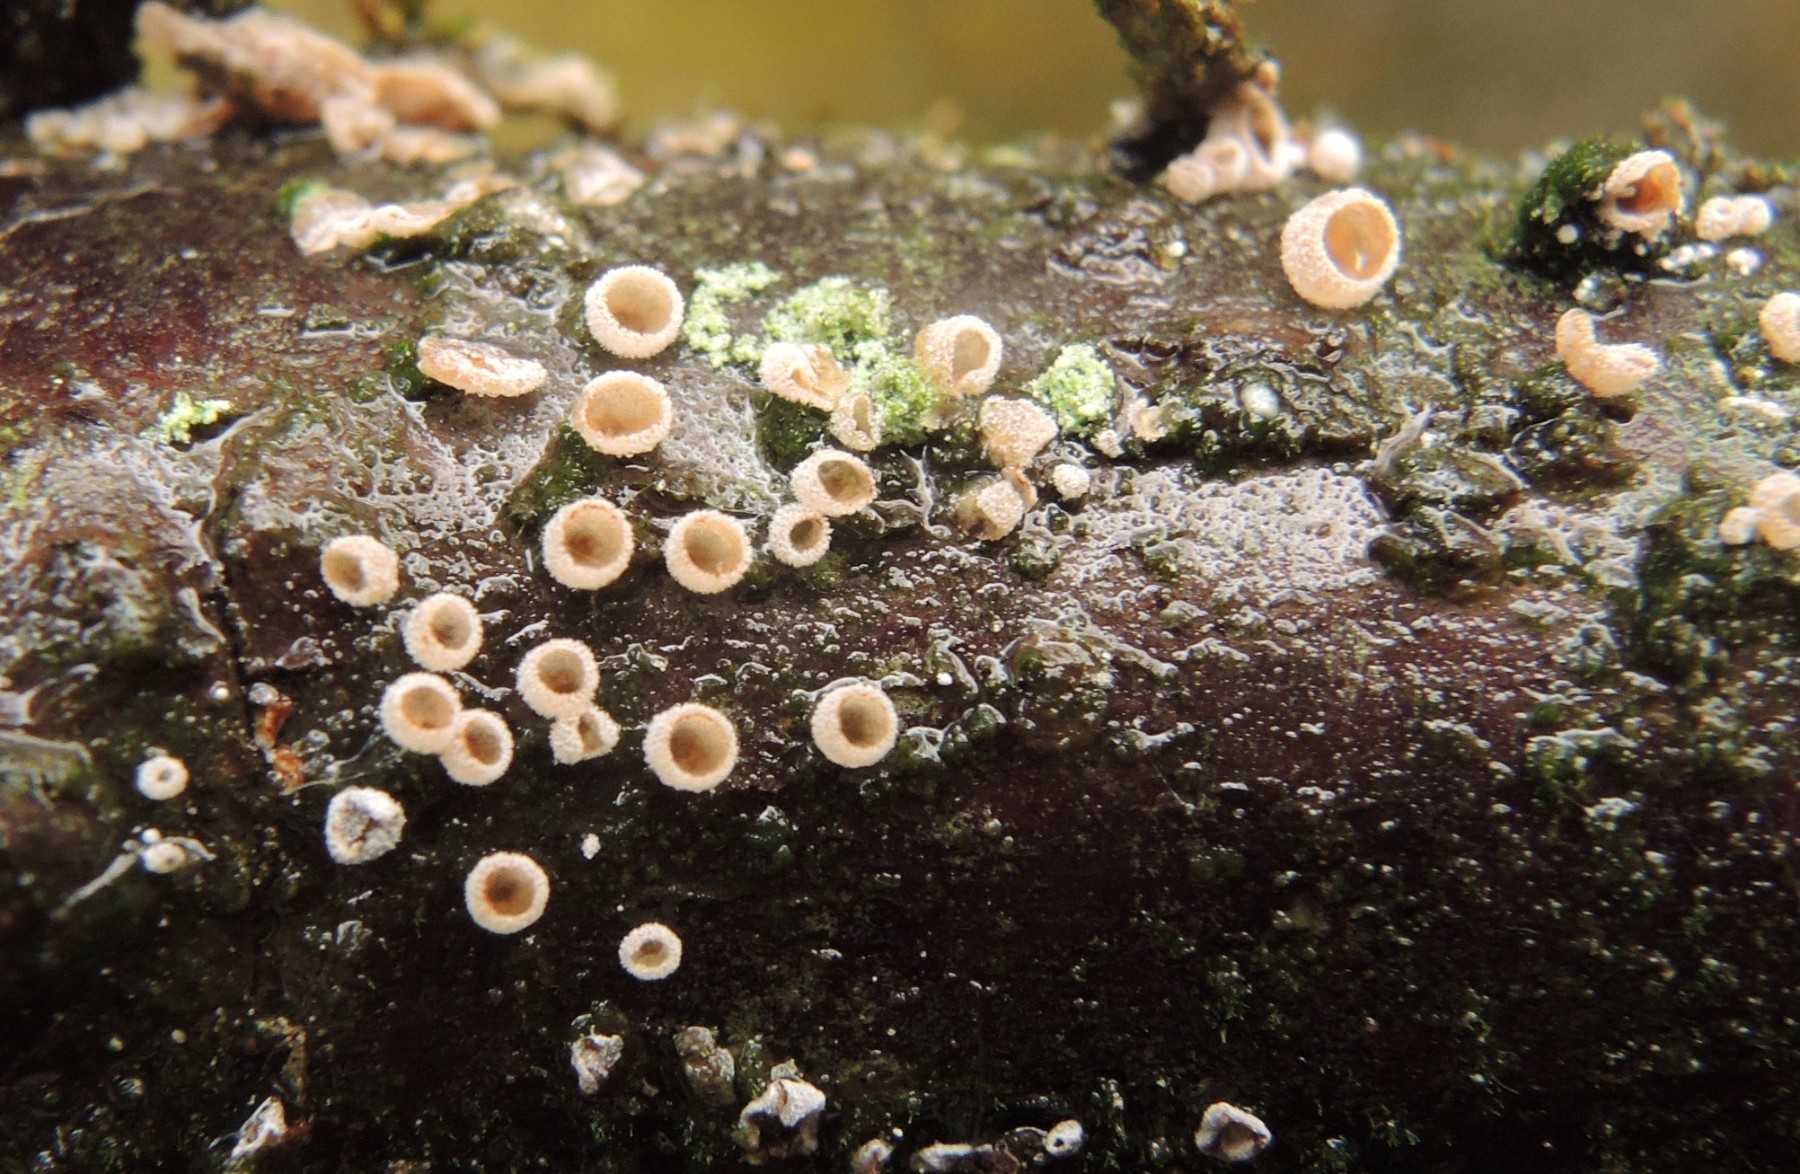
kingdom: Fungi
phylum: Basidiomycota
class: Agaricomycetes
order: Agaricales
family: Chromocyphellaceae
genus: Chromocyphella
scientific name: Chromocyphella muscicola
